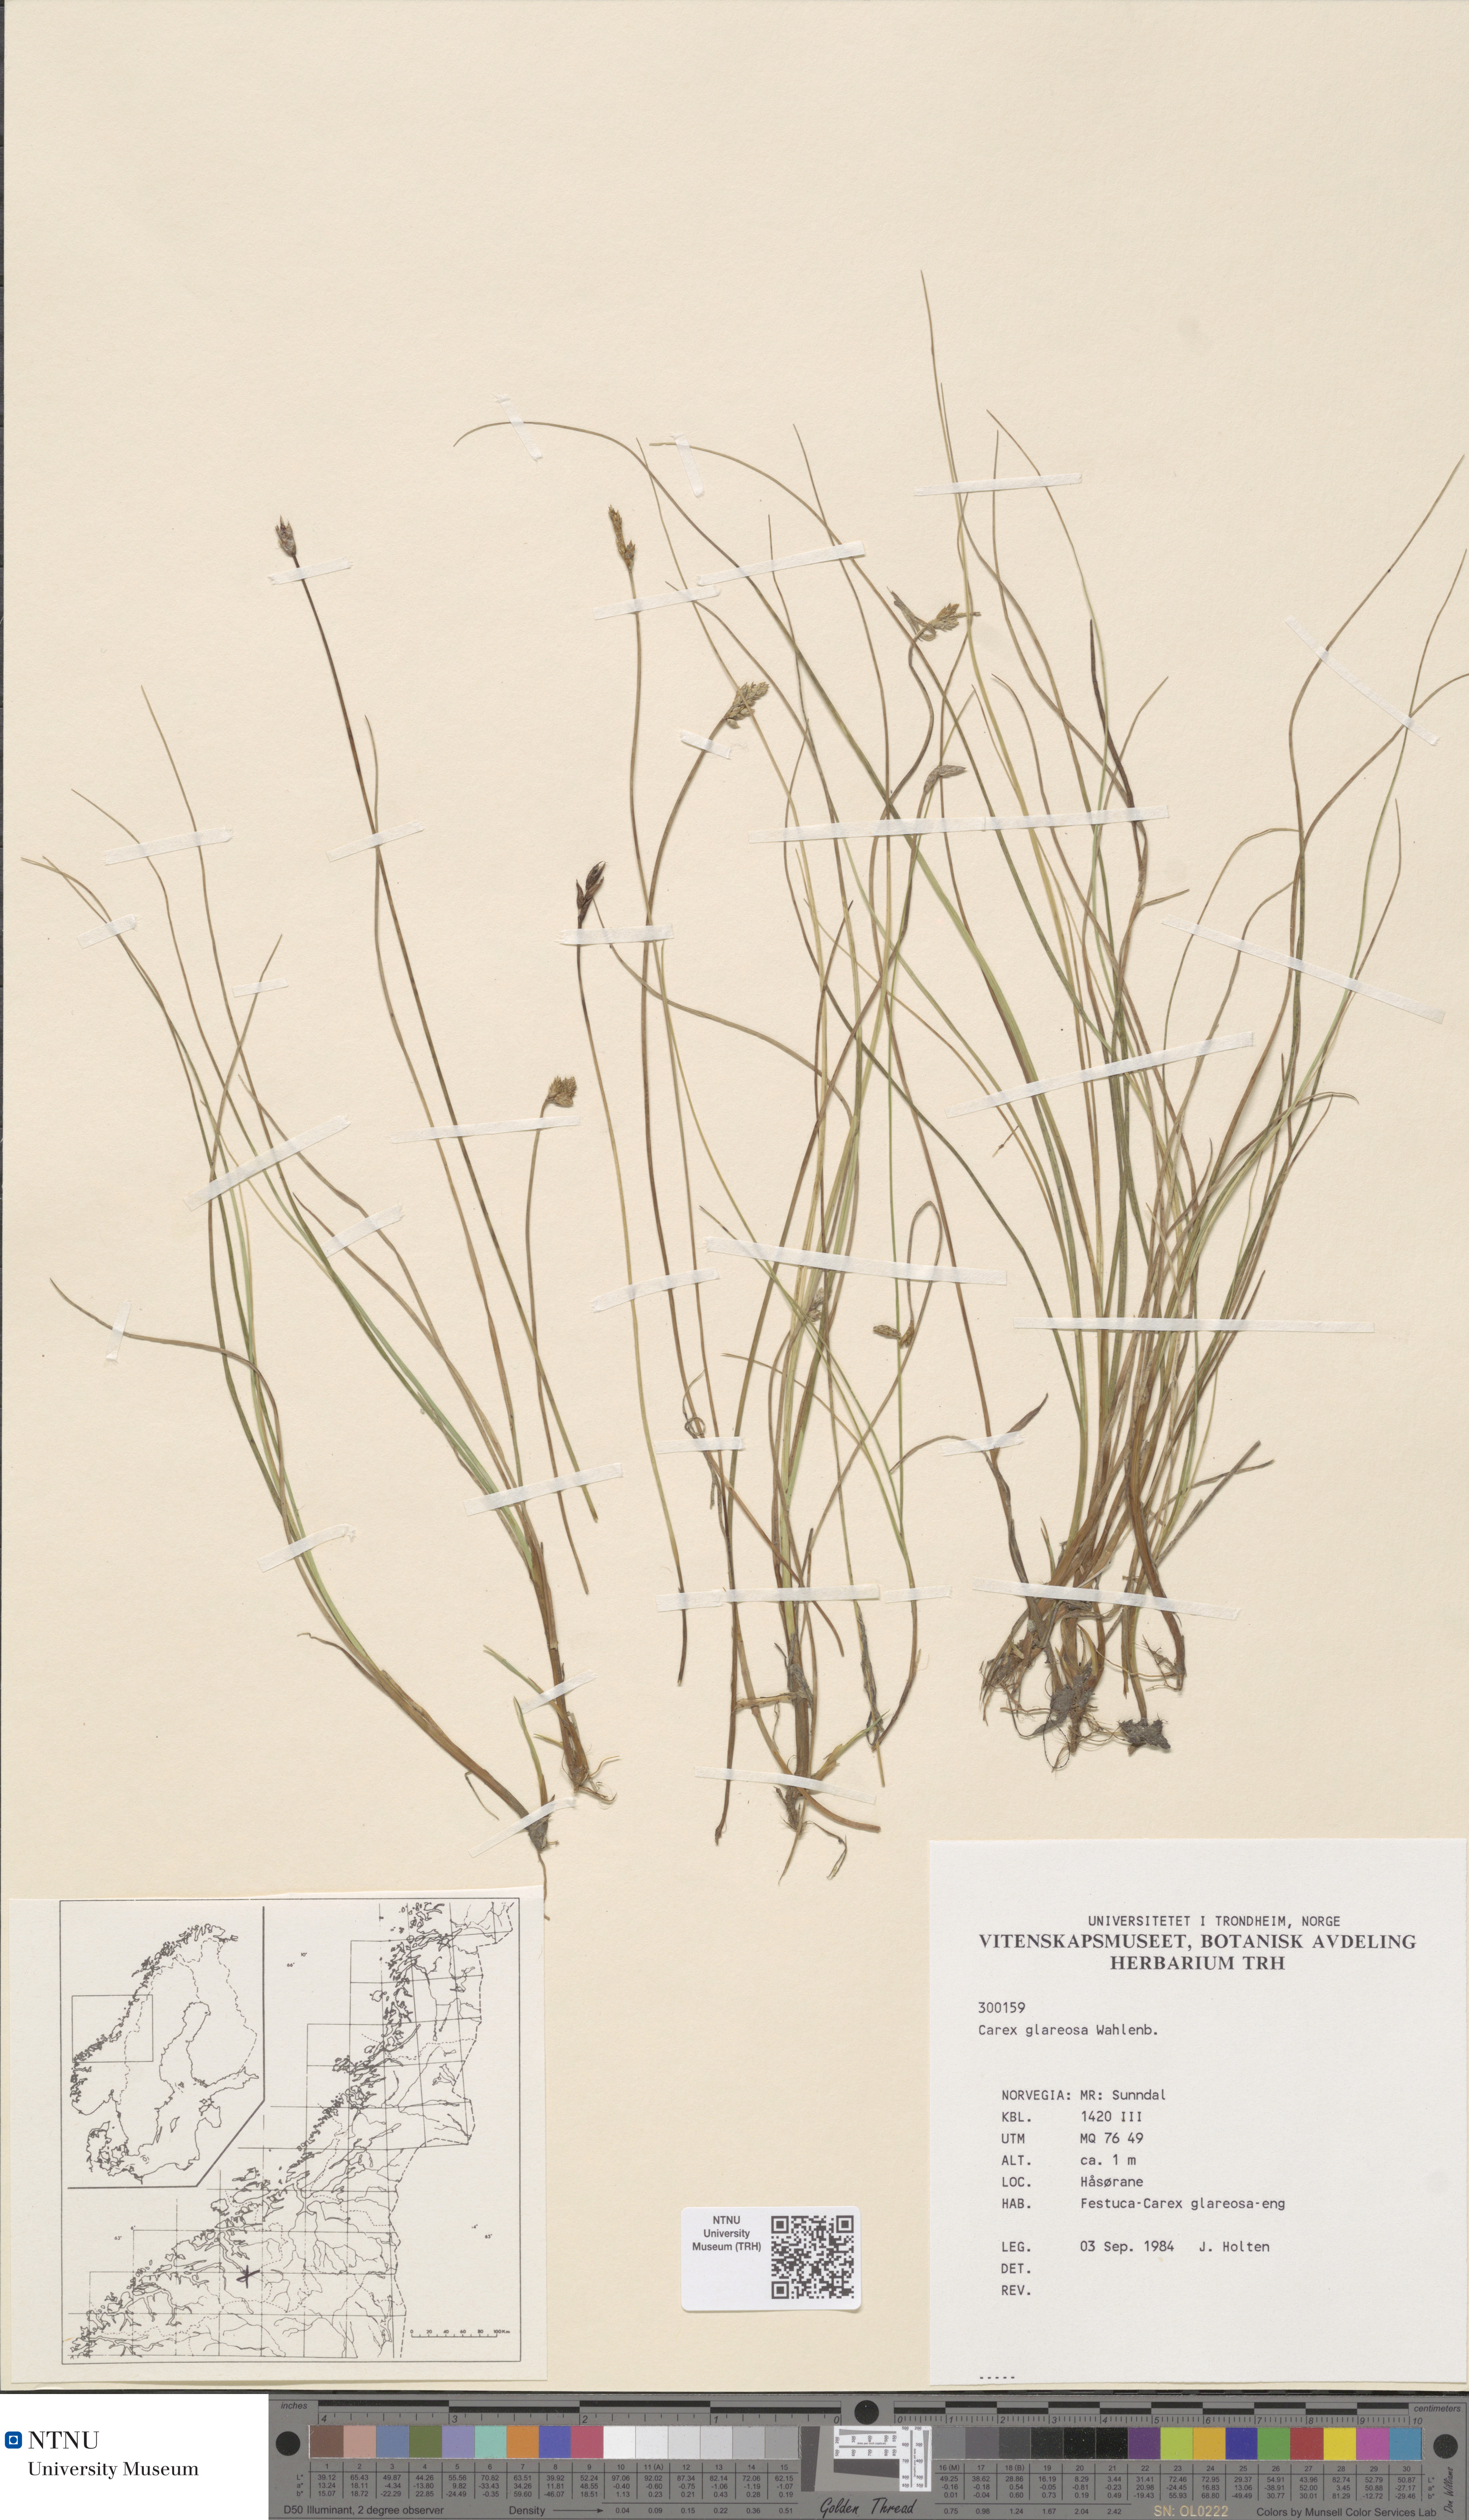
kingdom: Plantae
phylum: Tracheophyta
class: Liliopsida
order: Poales
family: Cyperaceae
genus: Carex
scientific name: Carex glareosa
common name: Clustered sedge
